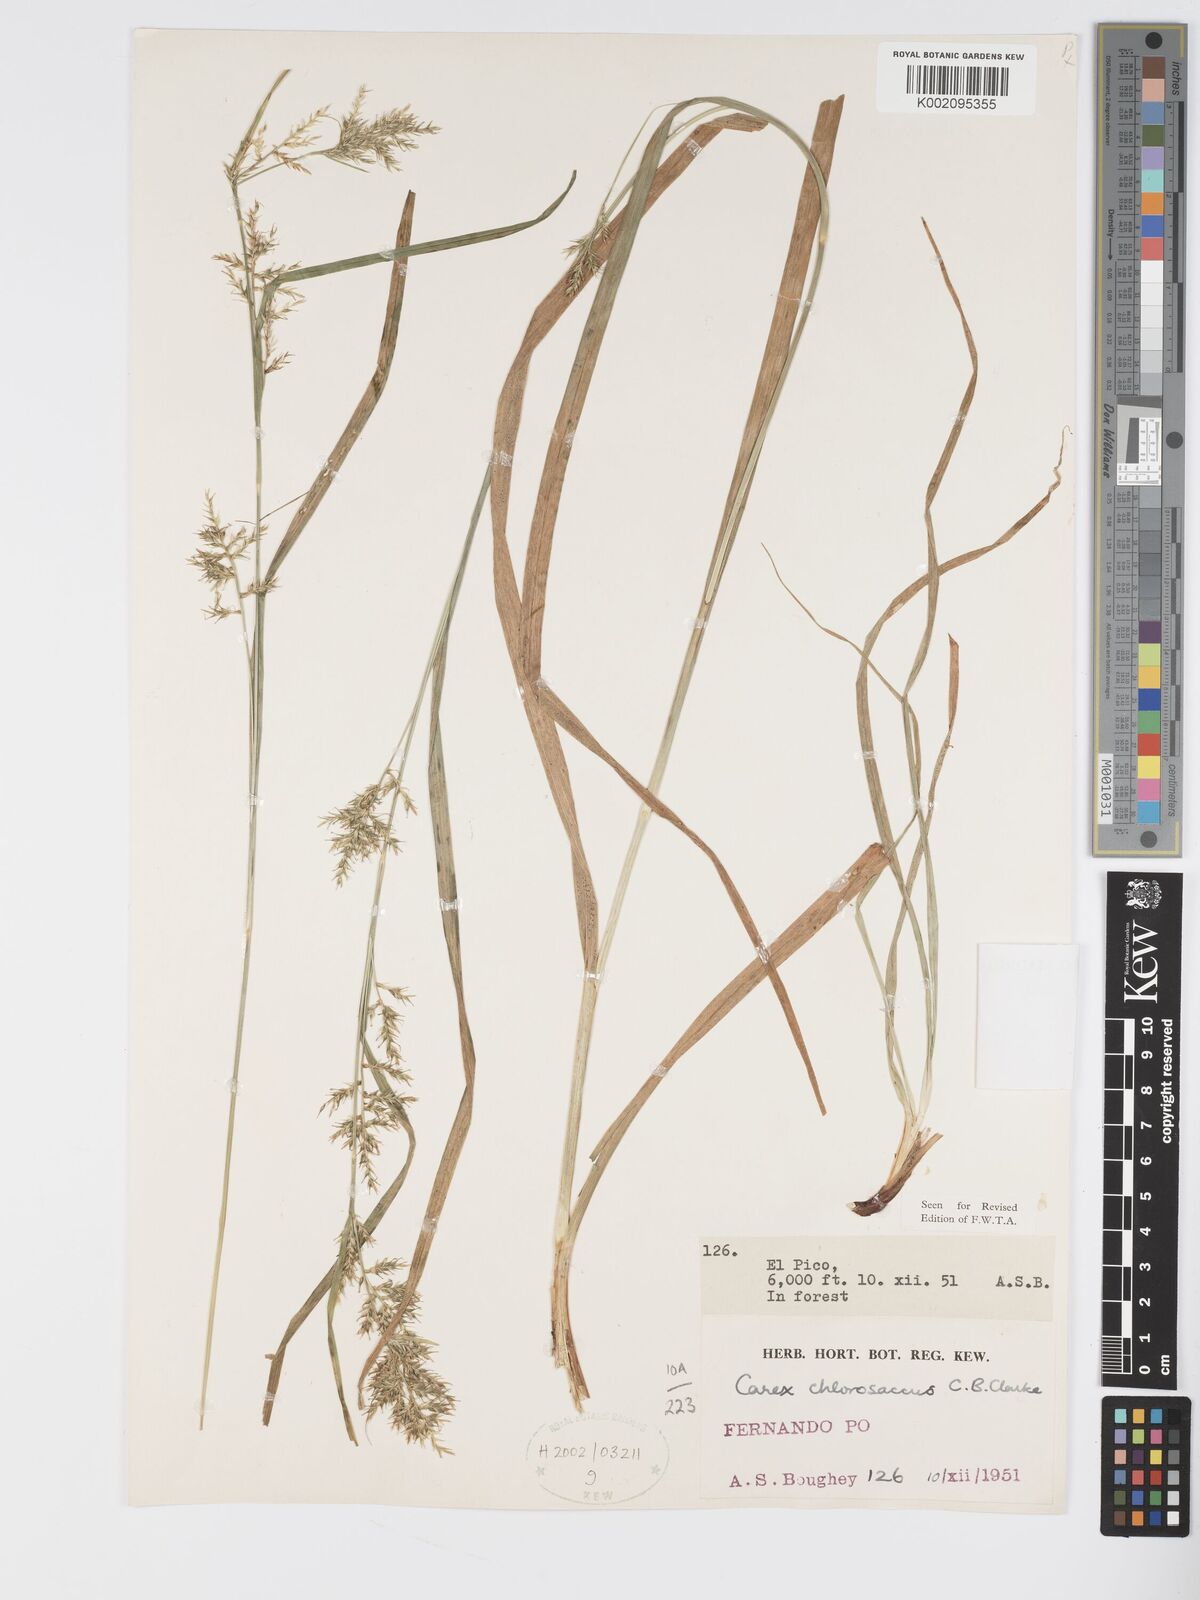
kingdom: Plantae
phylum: Tracheophyta
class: Liliopsida
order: Poales
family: Cyperaceae
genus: Carex
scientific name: Carex chlorosaccus
